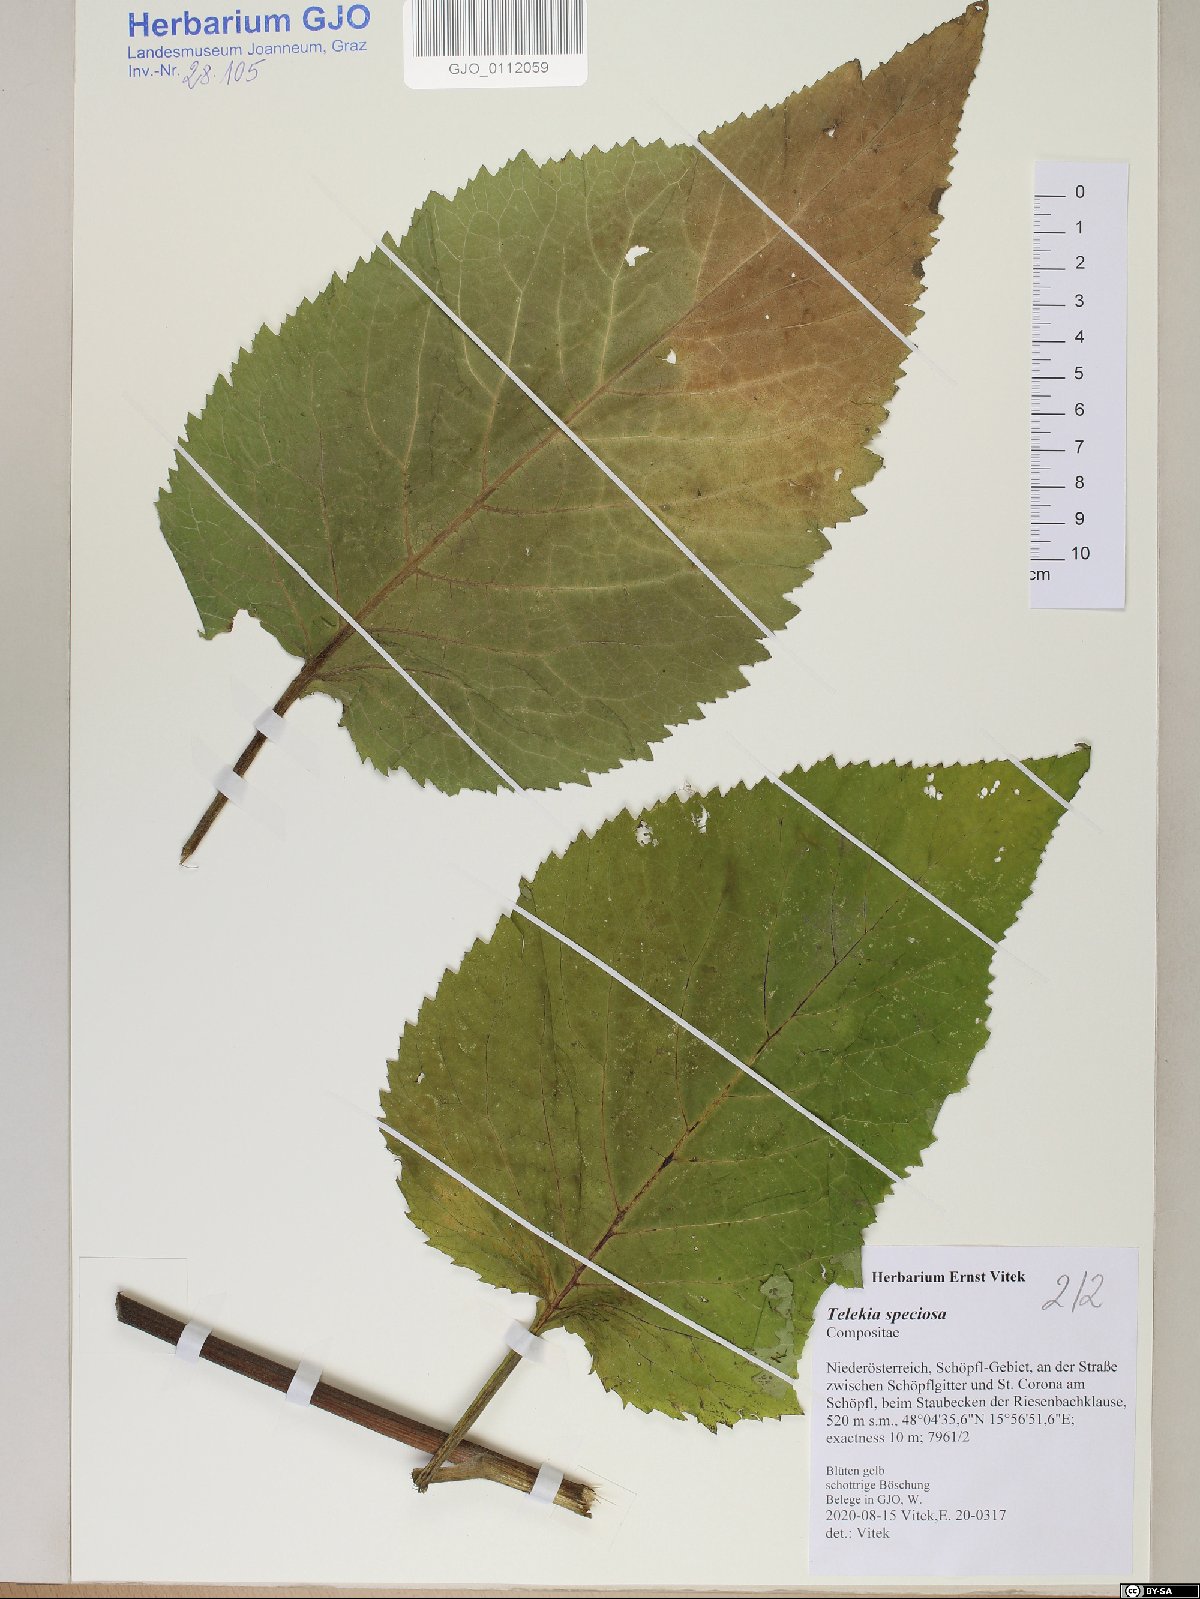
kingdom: Plantae
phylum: Tracheophyta
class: Magnoliopsida
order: Asterales
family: Asteraceae
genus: Telekia
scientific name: Telekia speciosa
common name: Yellow oxeye
